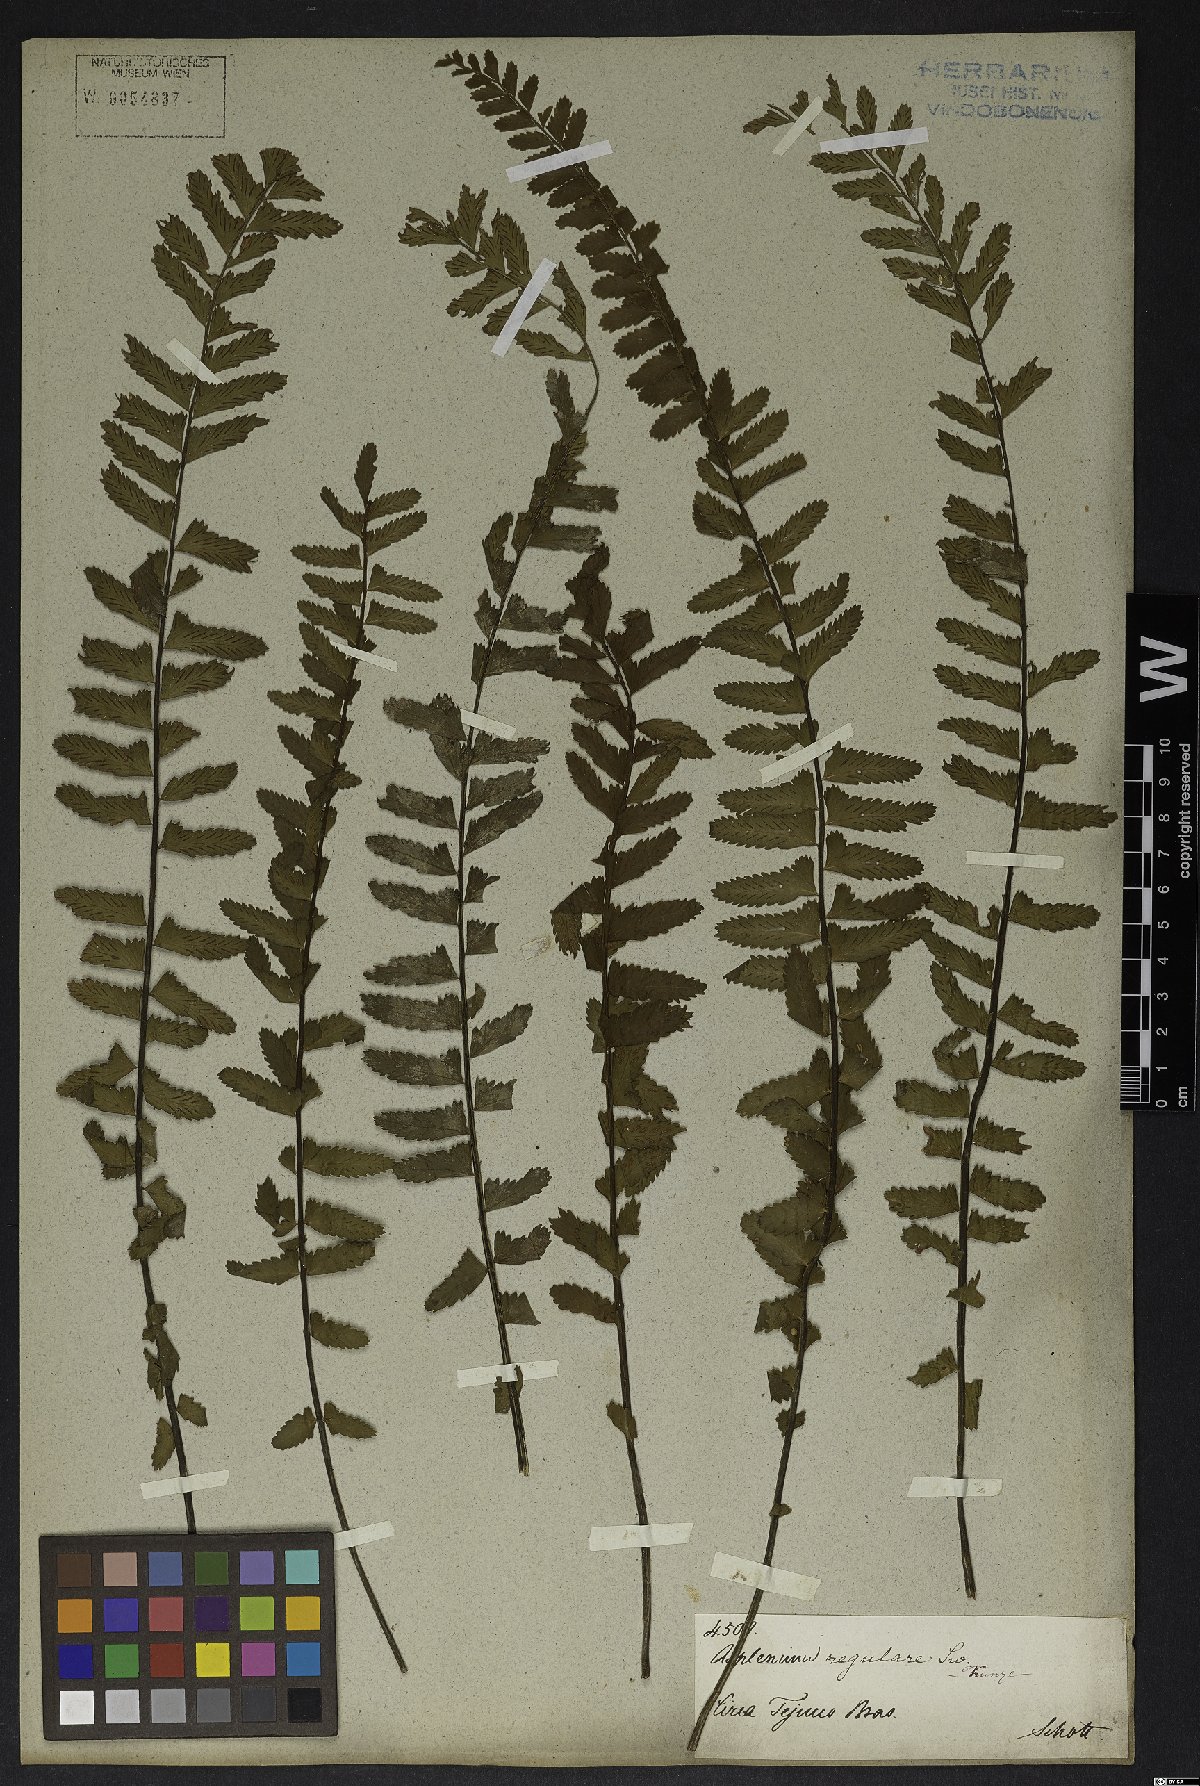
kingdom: Plantae
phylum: Tracheophyta
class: Polypodiopsida
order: Polypodiales
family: Aspleniaceae
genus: Asplenium
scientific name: Asplenium regulare
